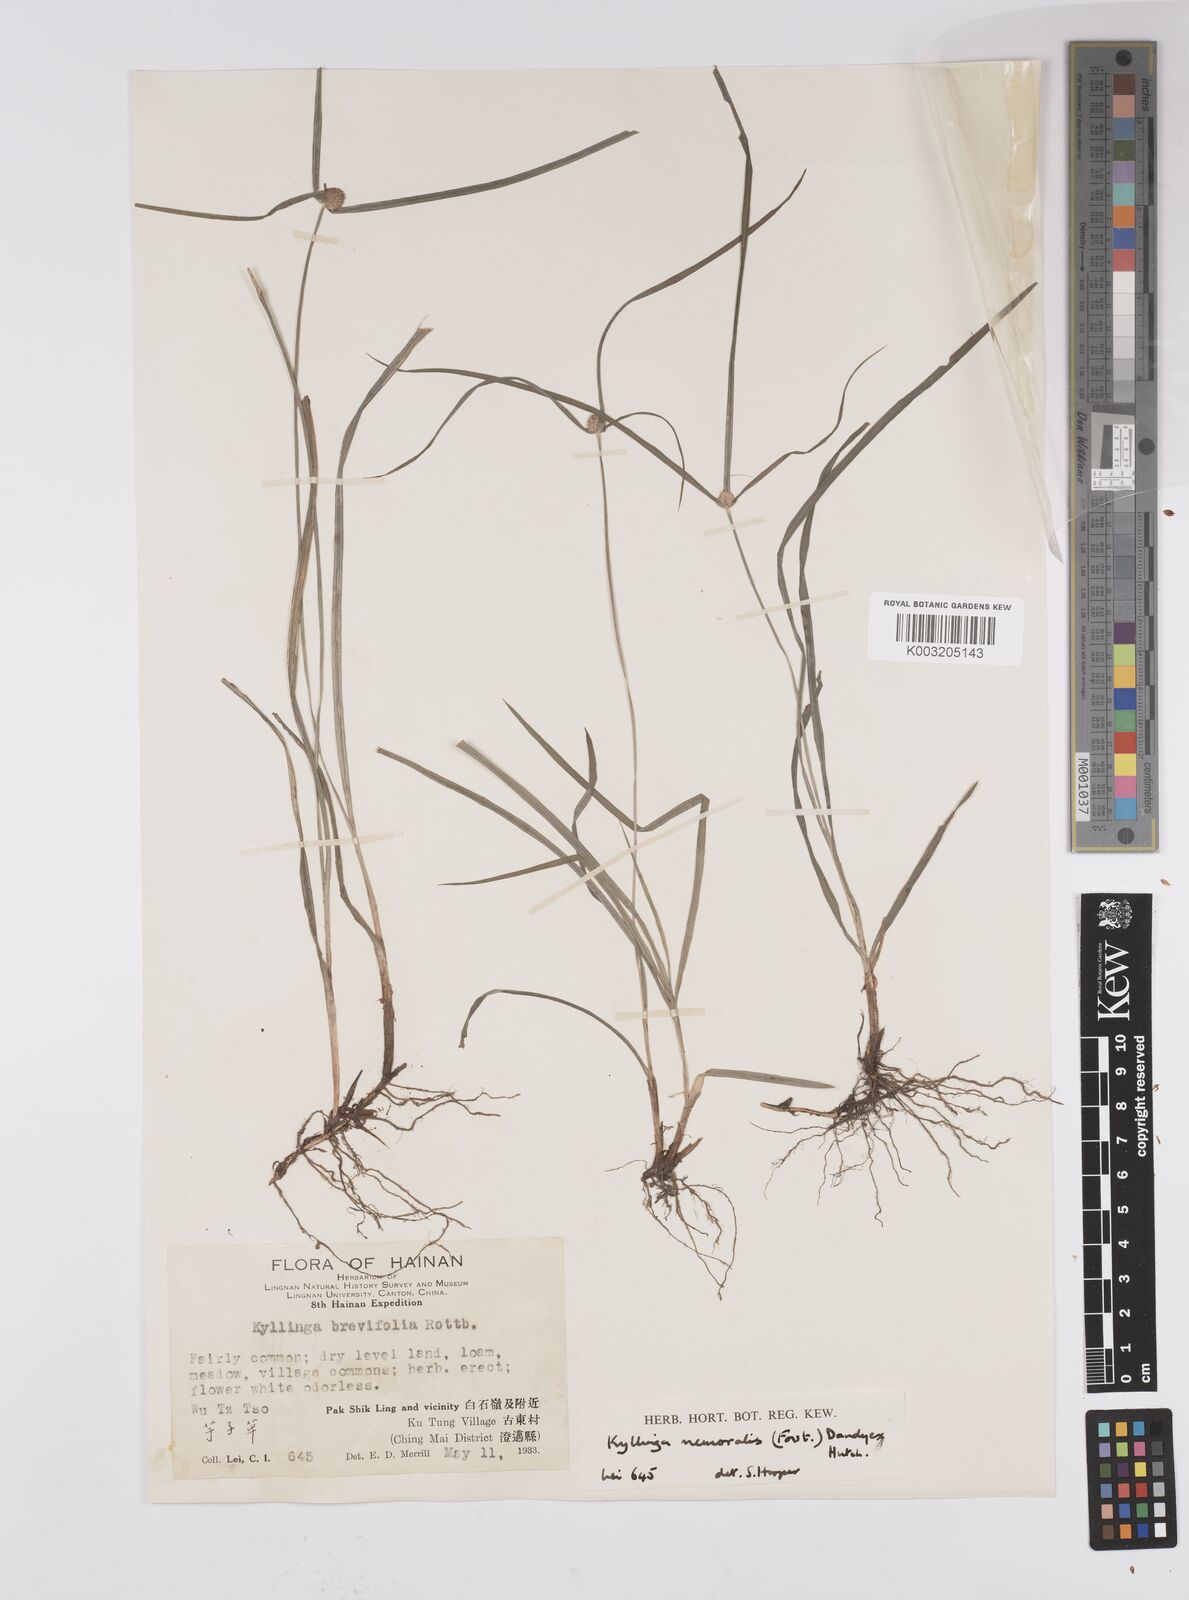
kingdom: Plantae
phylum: Tracheophyta
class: Liliopsida
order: Poales
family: Cyperaceae
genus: Cyperus
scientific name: Cyperus nemoralis
